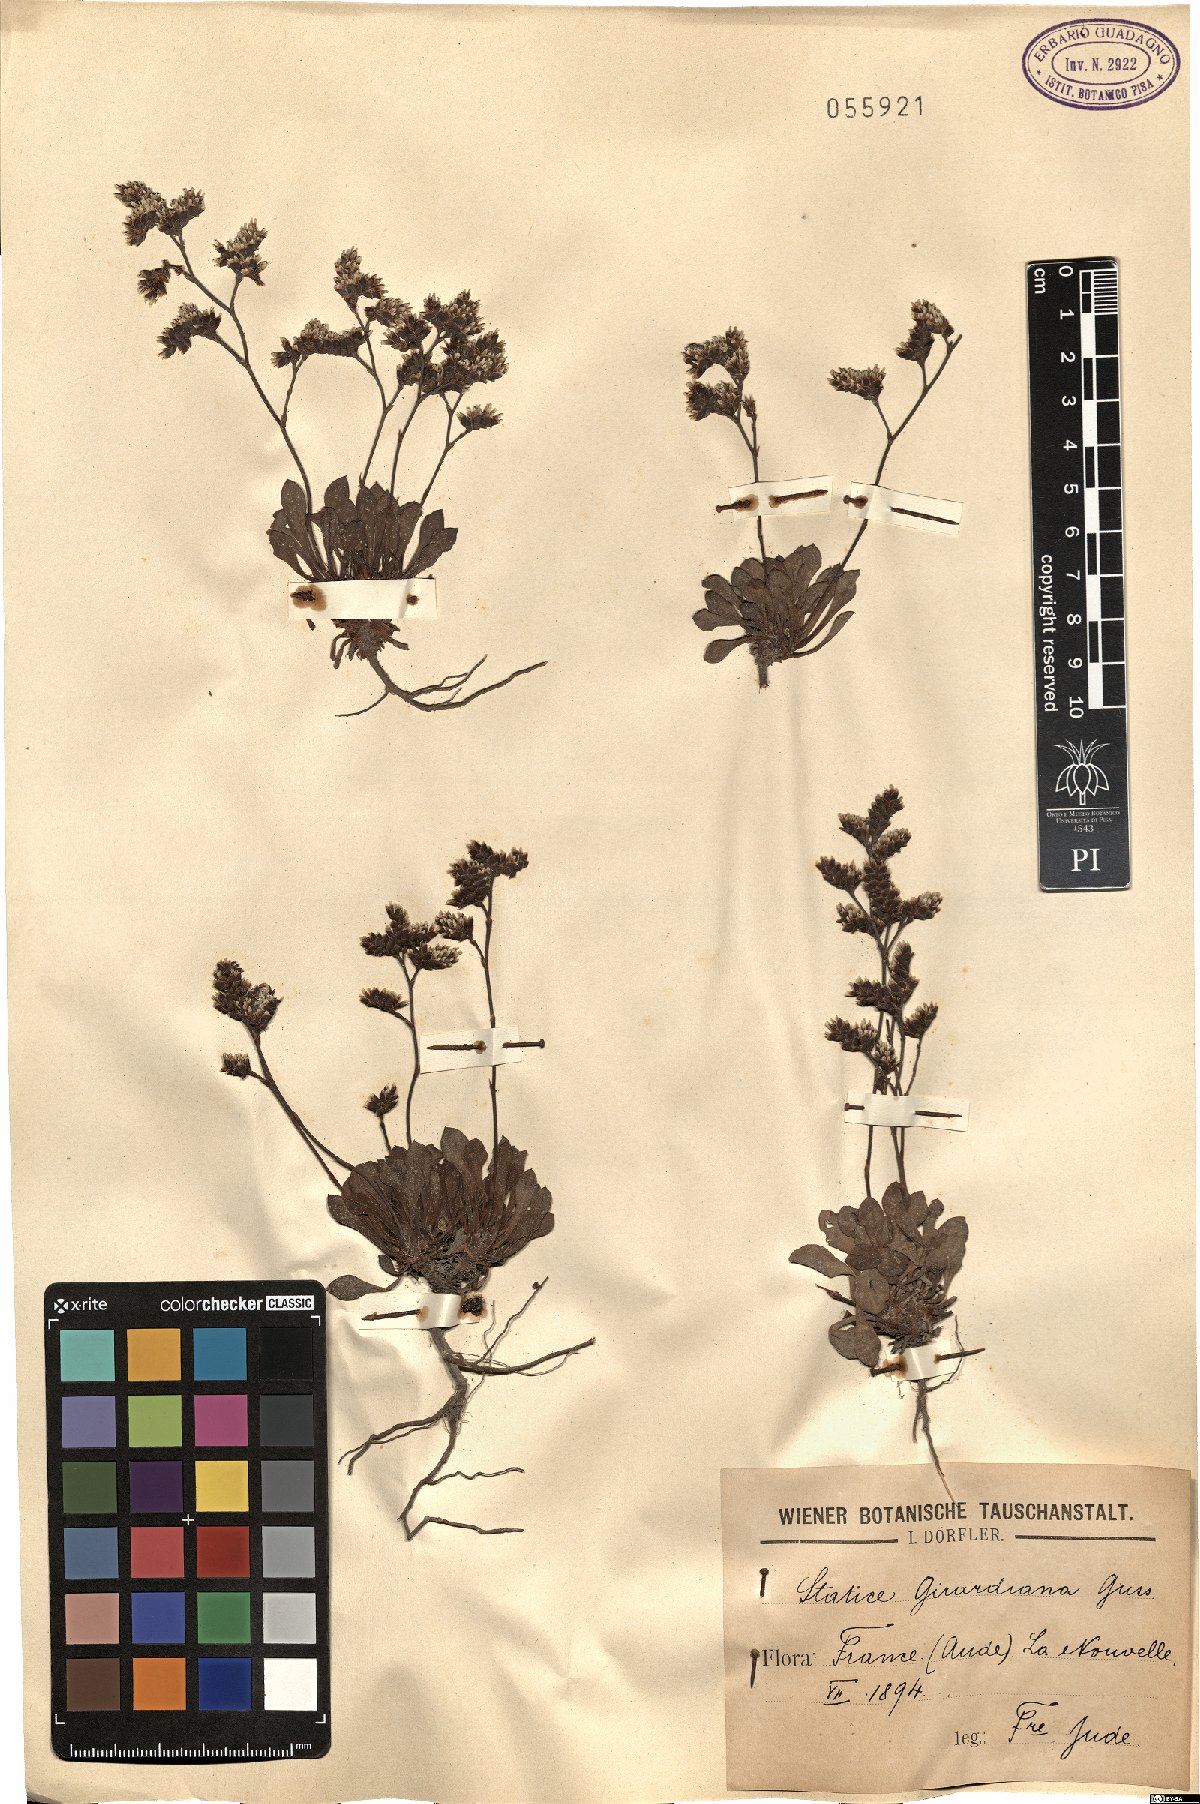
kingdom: Plantae
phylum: Tracheophyta
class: Magnoliopsida
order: Caryophyllales
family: Plumbaginaceae
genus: Limonium
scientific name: Limonium girardianum
